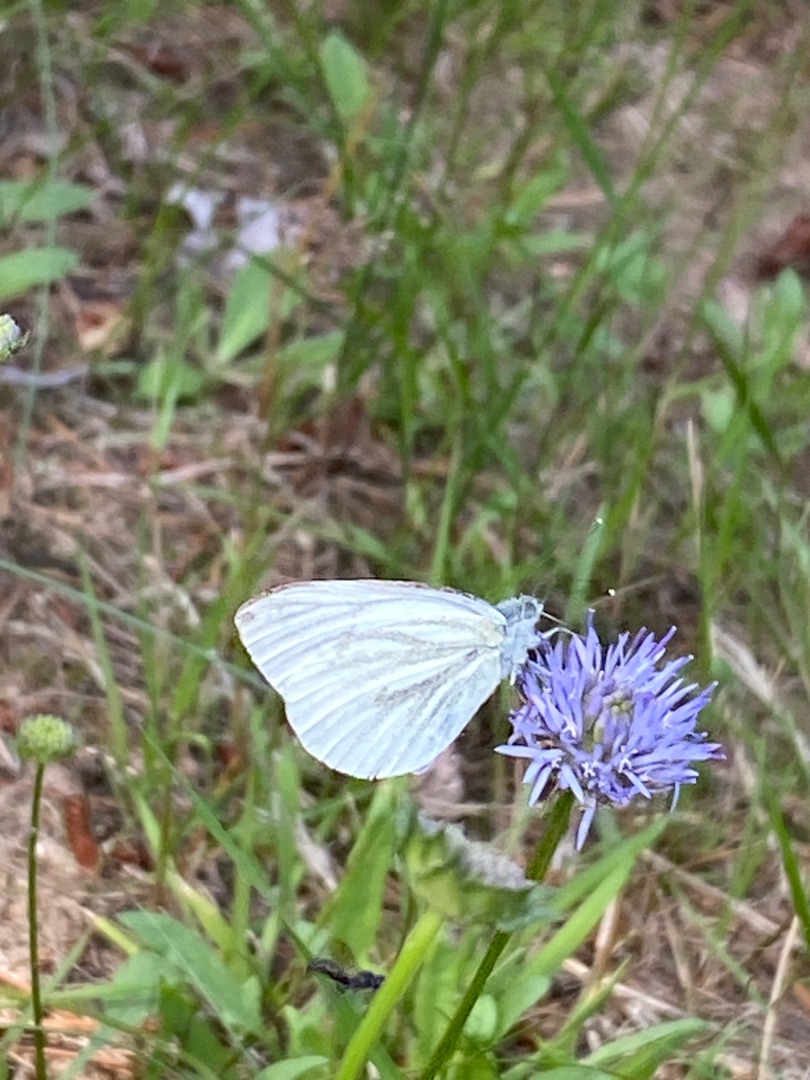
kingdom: Animalia
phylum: Arthropoda
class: Insecta
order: Lepidoptera
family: Pieridae
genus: Pieris
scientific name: Pieris napi
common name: Grønåret kålsommerfugl
